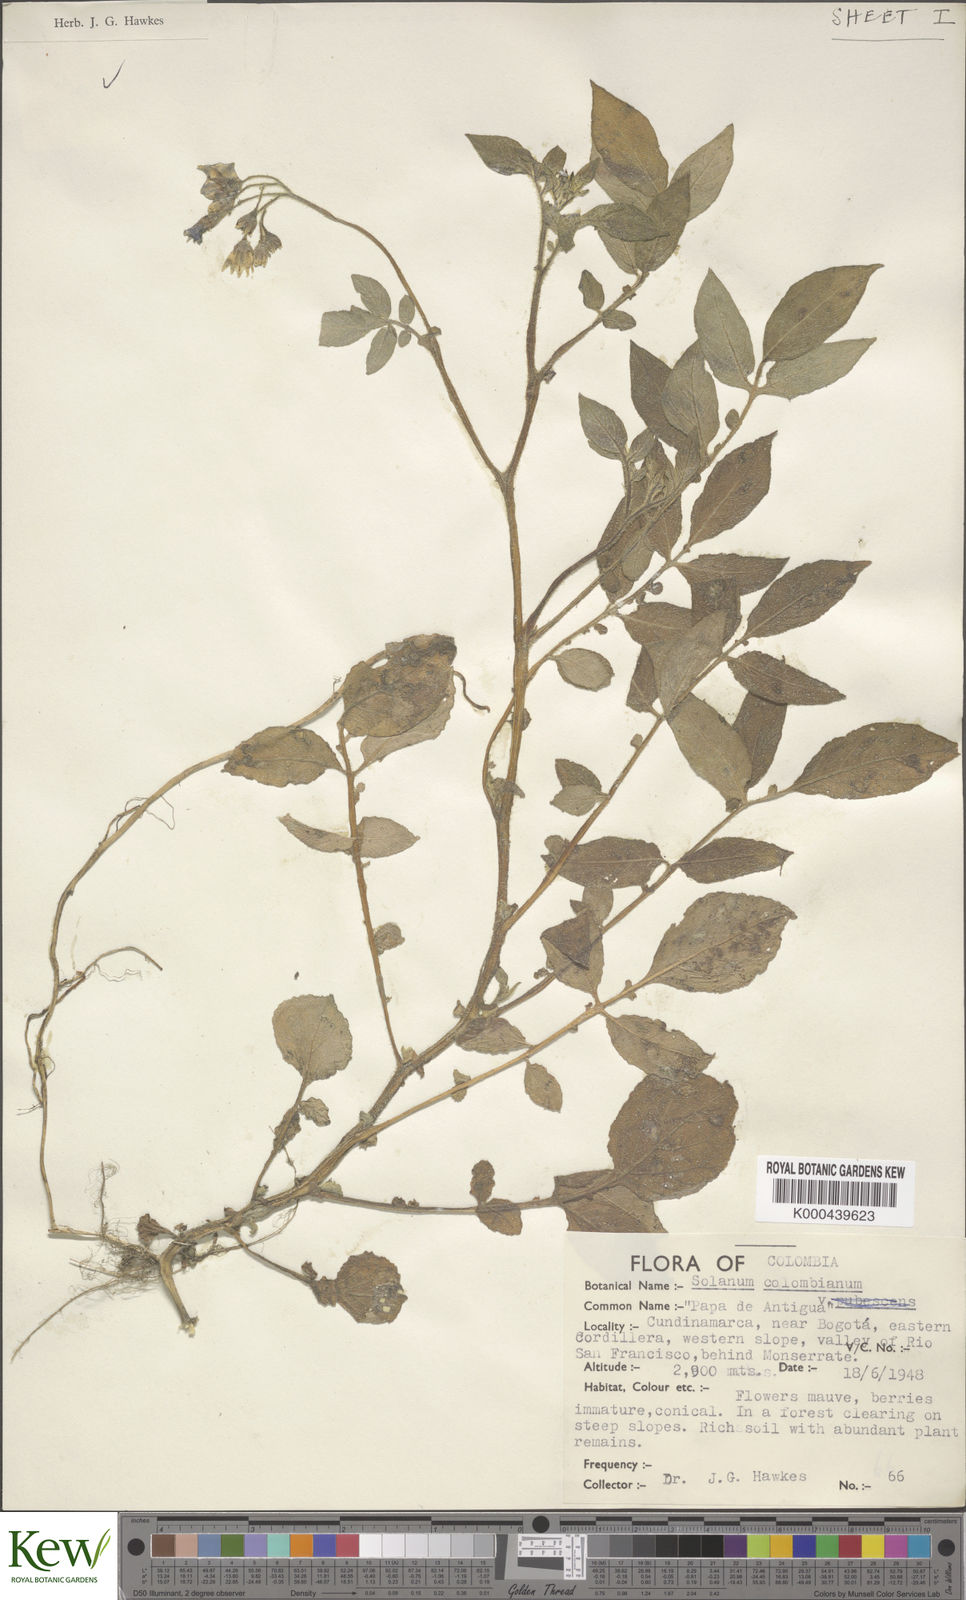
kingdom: Plantae
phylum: Tracheophyta
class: Magnoliopsida
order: Solanales
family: Solanaceae
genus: Solanum
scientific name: Solanum colombianum
